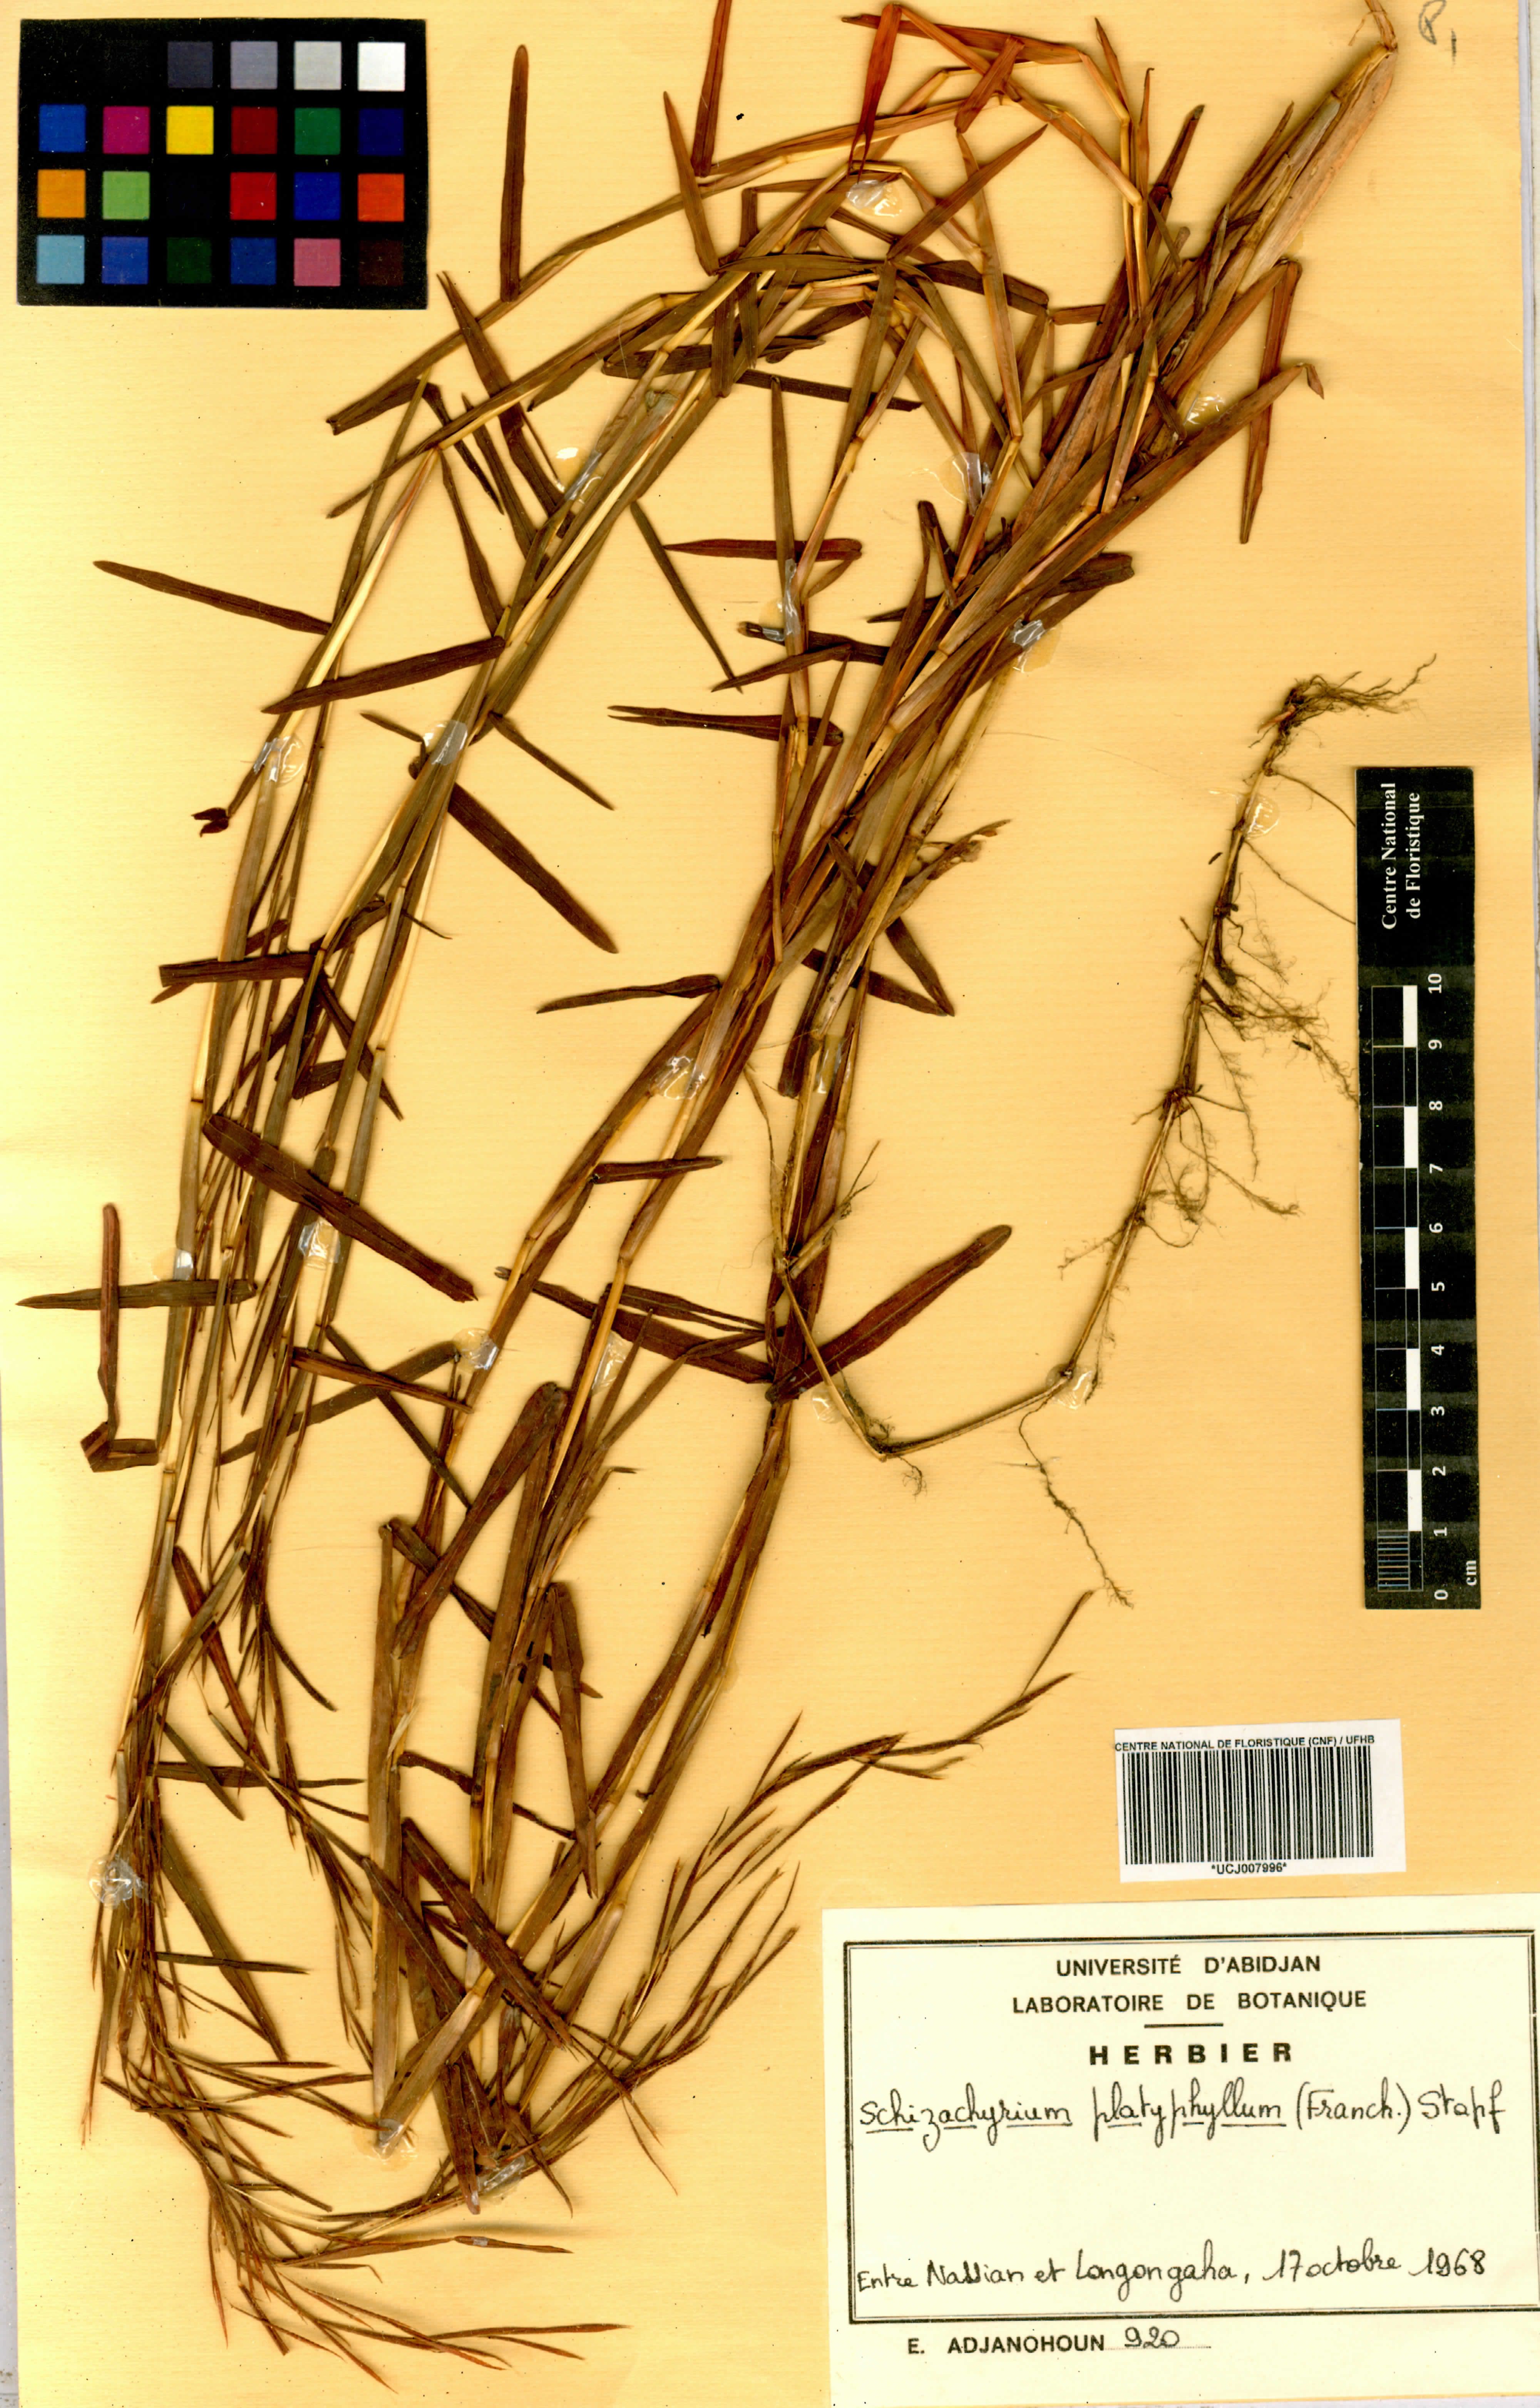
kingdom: Plantae
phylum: Tracheophyta
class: Liliopsida
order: Poales
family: Poaceae
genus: Schizachyrium
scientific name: Schizachyrium platyphyllum
